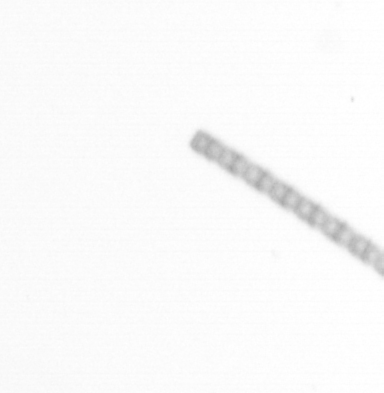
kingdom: Chromista
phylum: Ochrophyta
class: Bacillariophyceae
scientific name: Bacillariophyceae
